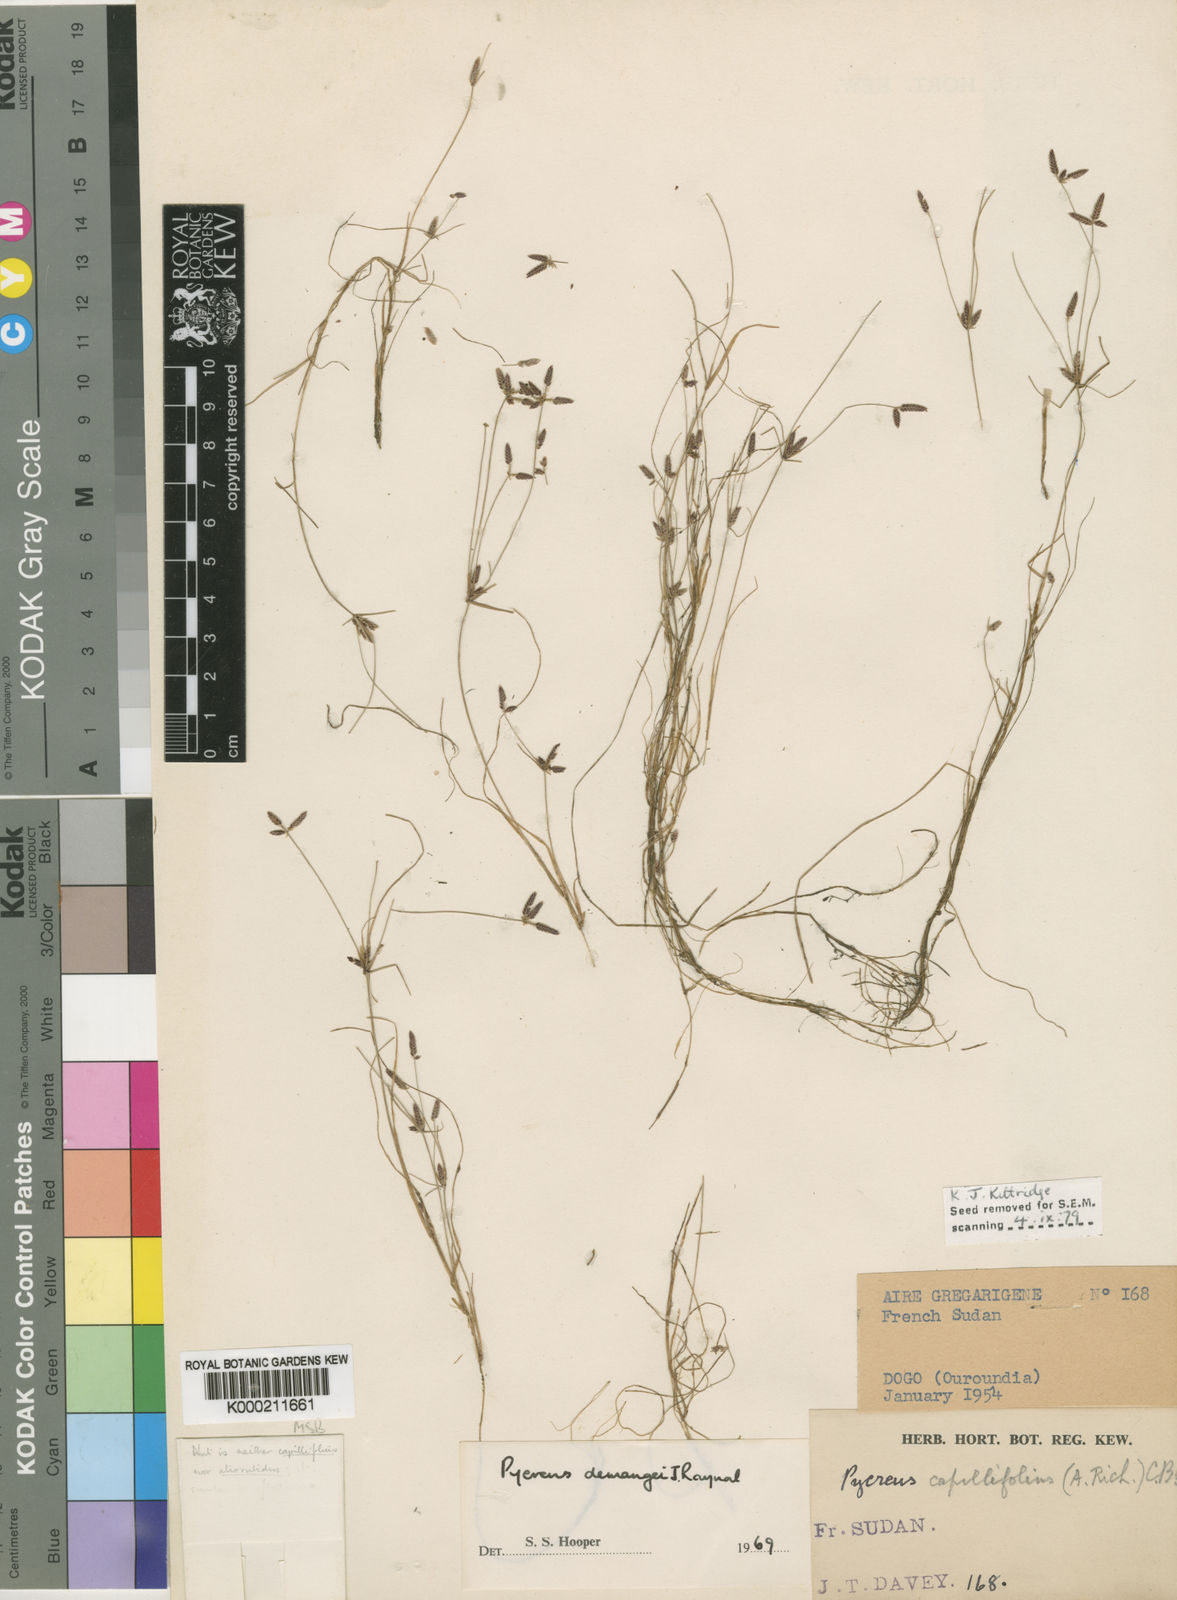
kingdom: Plantae
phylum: Tracheophyta
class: Liliopsida
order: Poales
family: Cyperaceae
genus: Cyperus
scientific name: Cyperus demangei
